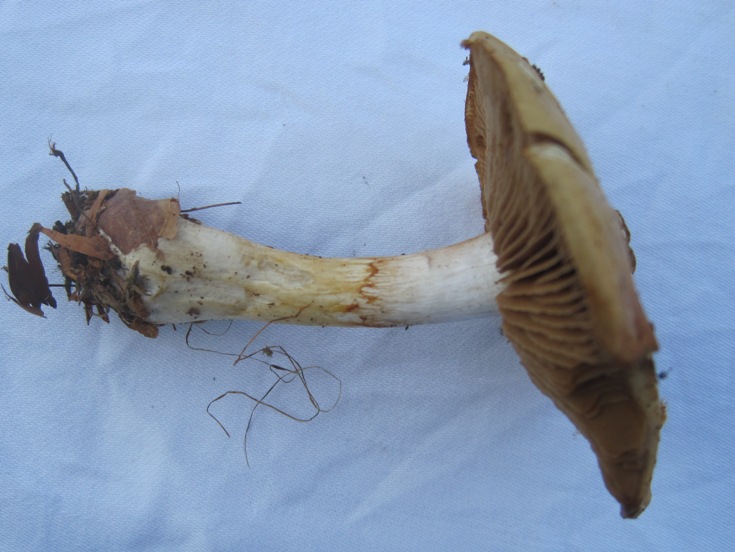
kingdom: Fungi
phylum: Basidiomycota
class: Agaricomycetes
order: Agaricales
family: Cortinariaceae
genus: Cortinarius
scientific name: Cortinarius delibutus
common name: gul slørhat
